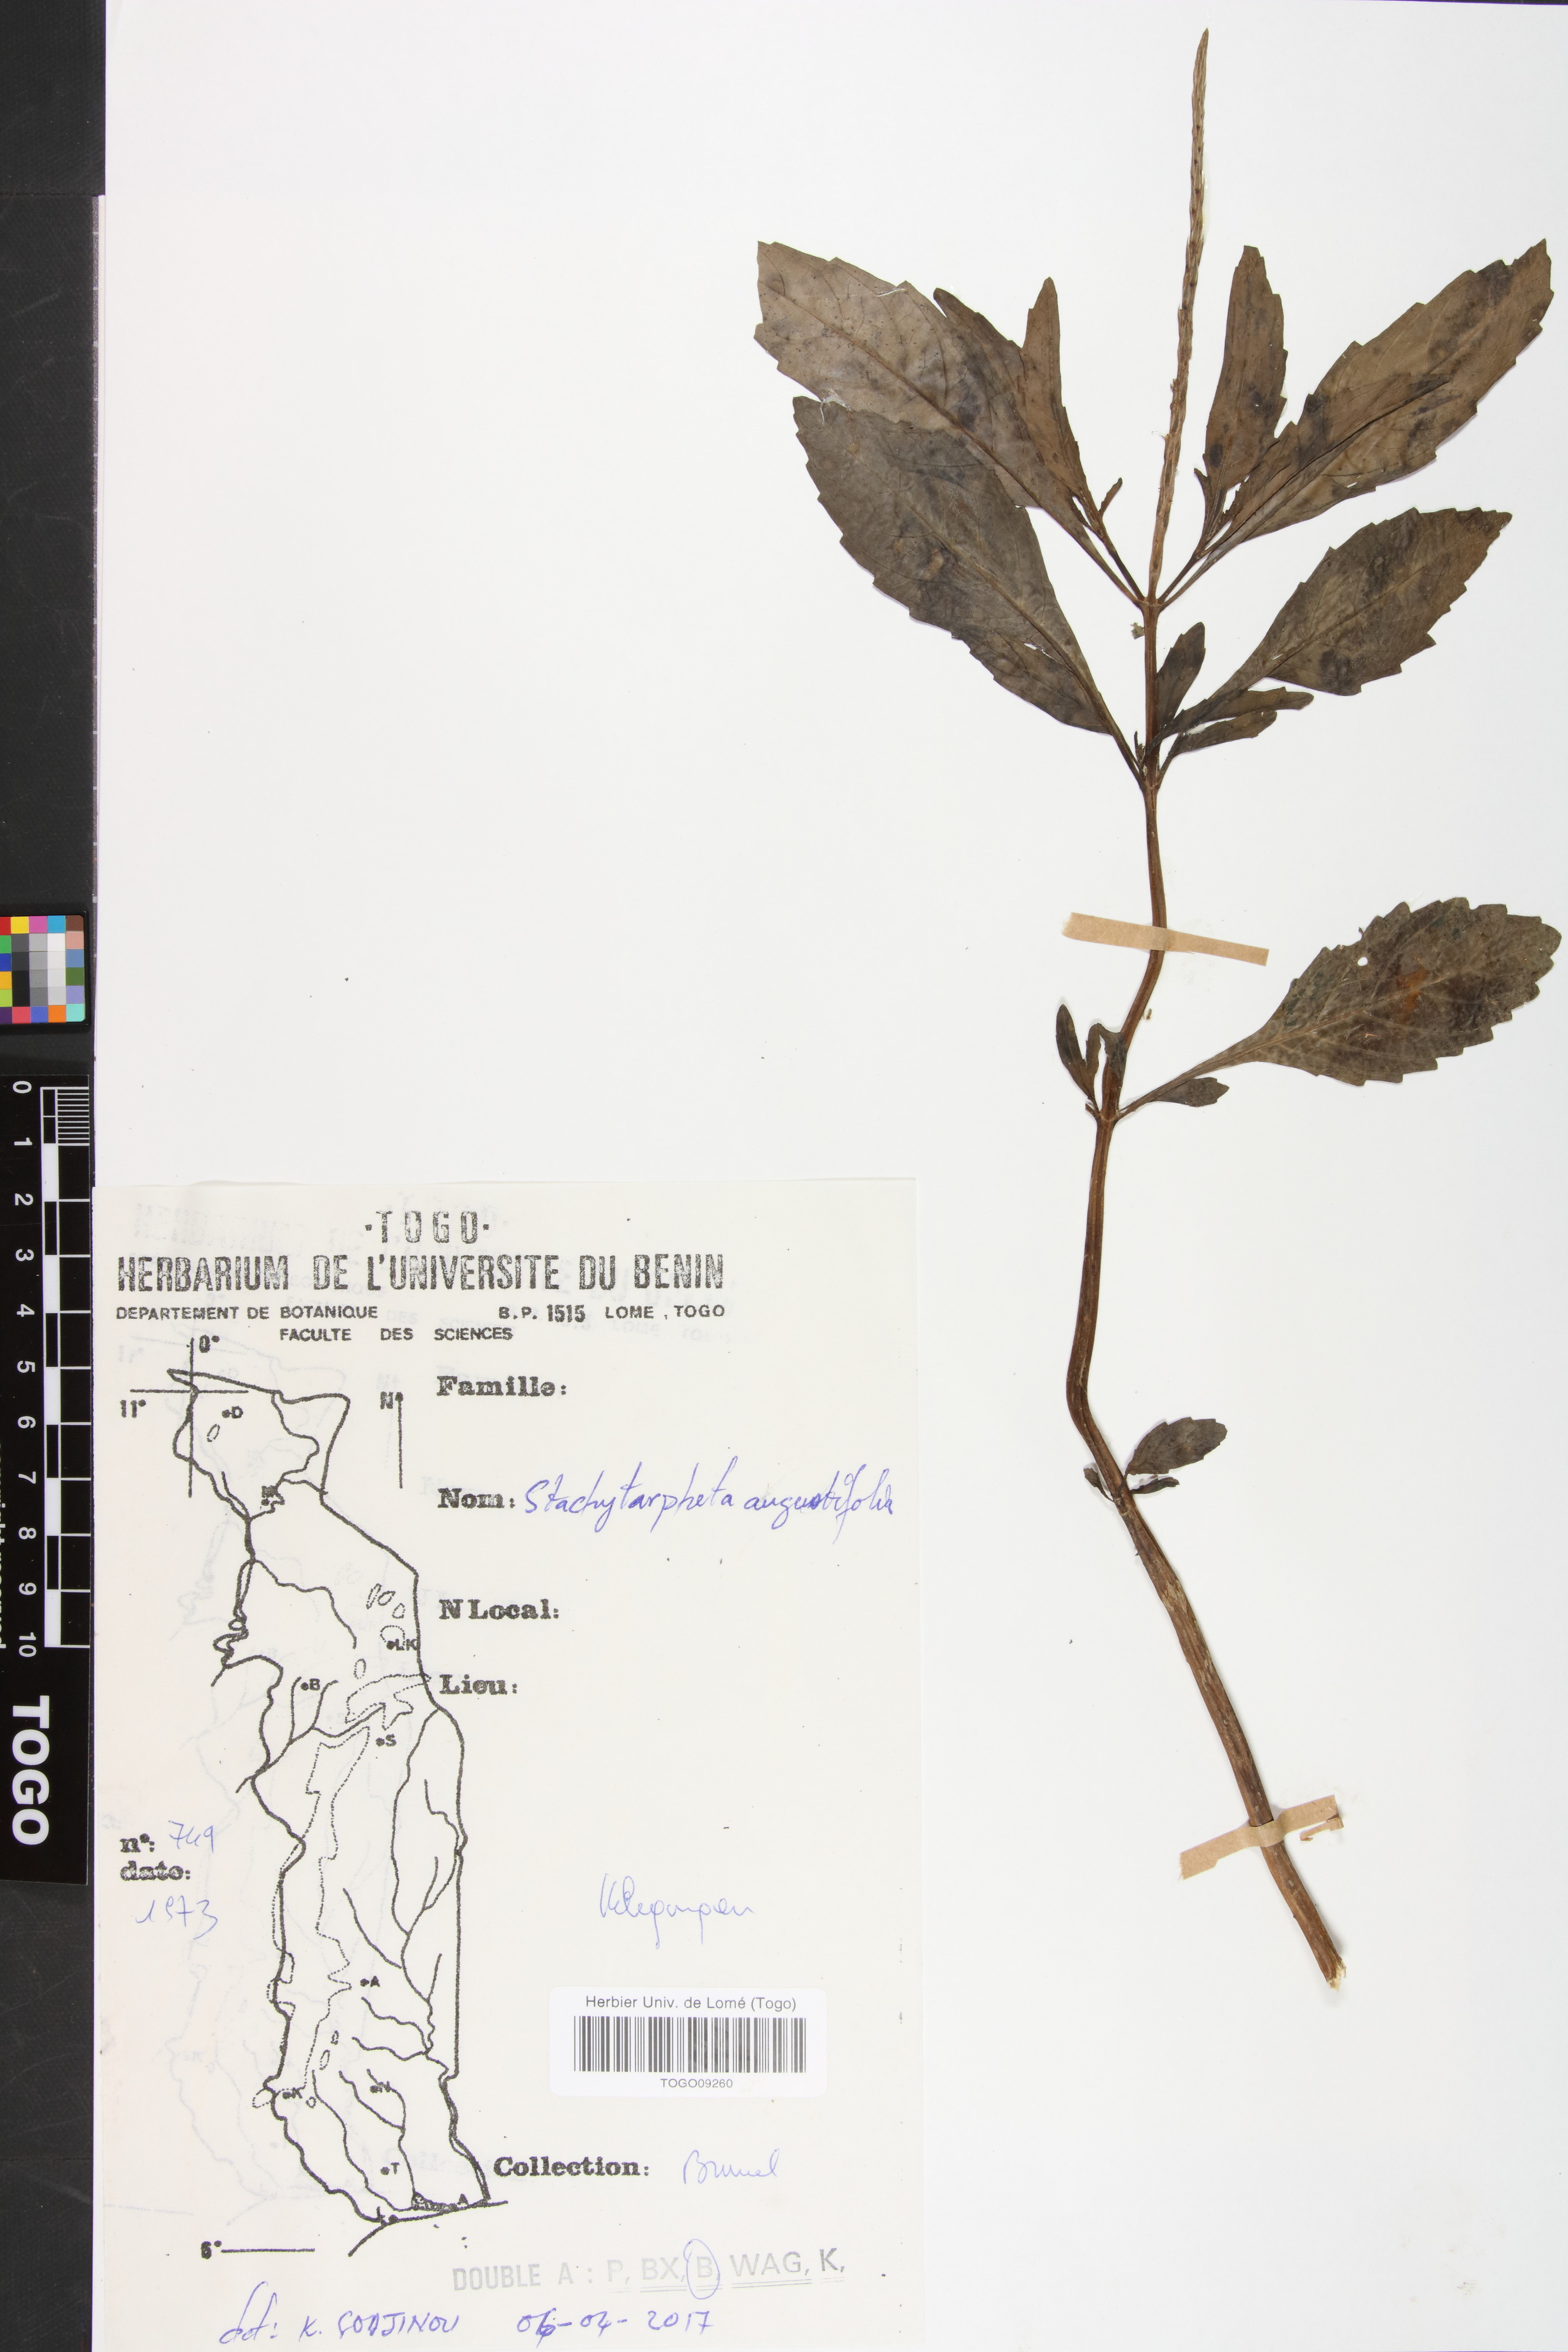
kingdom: Plantae
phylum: Tracheophyta
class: Magnoliopsida
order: Lamiales
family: Verbenaceae
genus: Stachytarpheta
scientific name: Stachytarpheta indica
